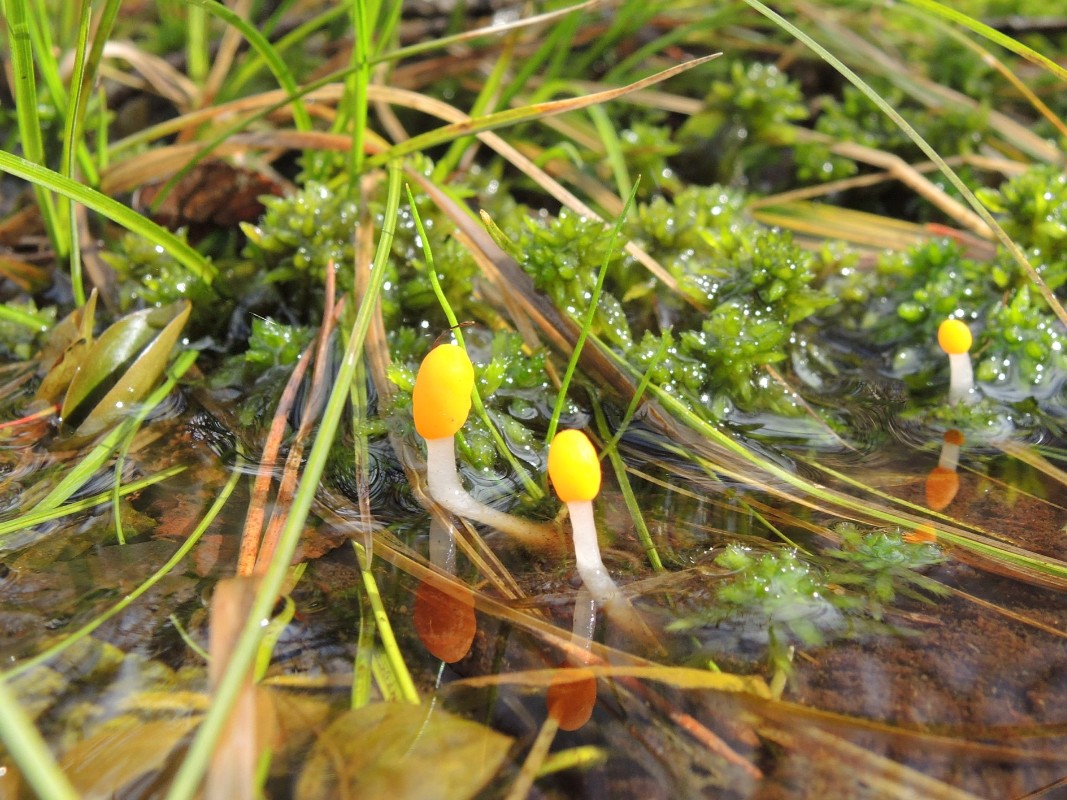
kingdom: Fungi
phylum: Ascomycota
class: Leotiomycetes
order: Helotiales
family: Cenangiaceae
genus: Mitrula
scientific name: Mitrula paludosa
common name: gul nøkketunge
